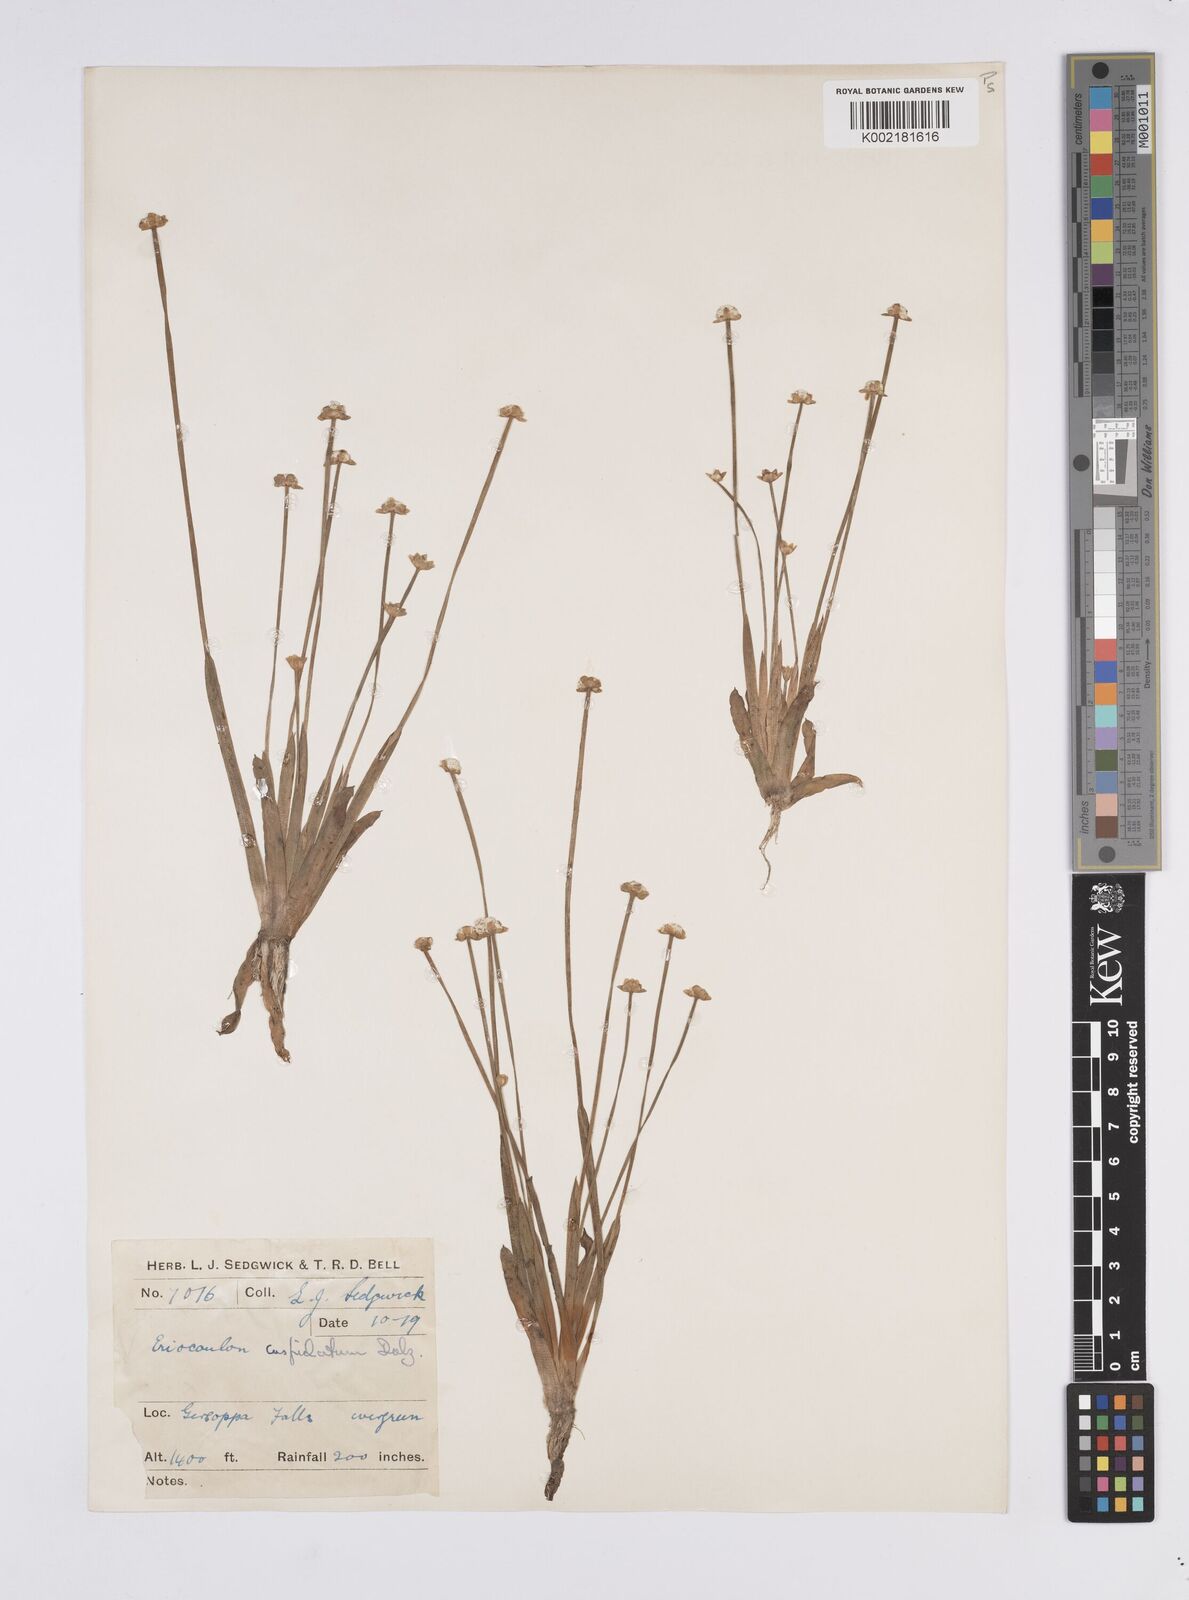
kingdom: Plantae
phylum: Tracheophyta
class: Liliopsida
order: Poales
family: Eriocaulaceae
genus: Eriocaulon
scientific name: Eriocaulon fysonii
